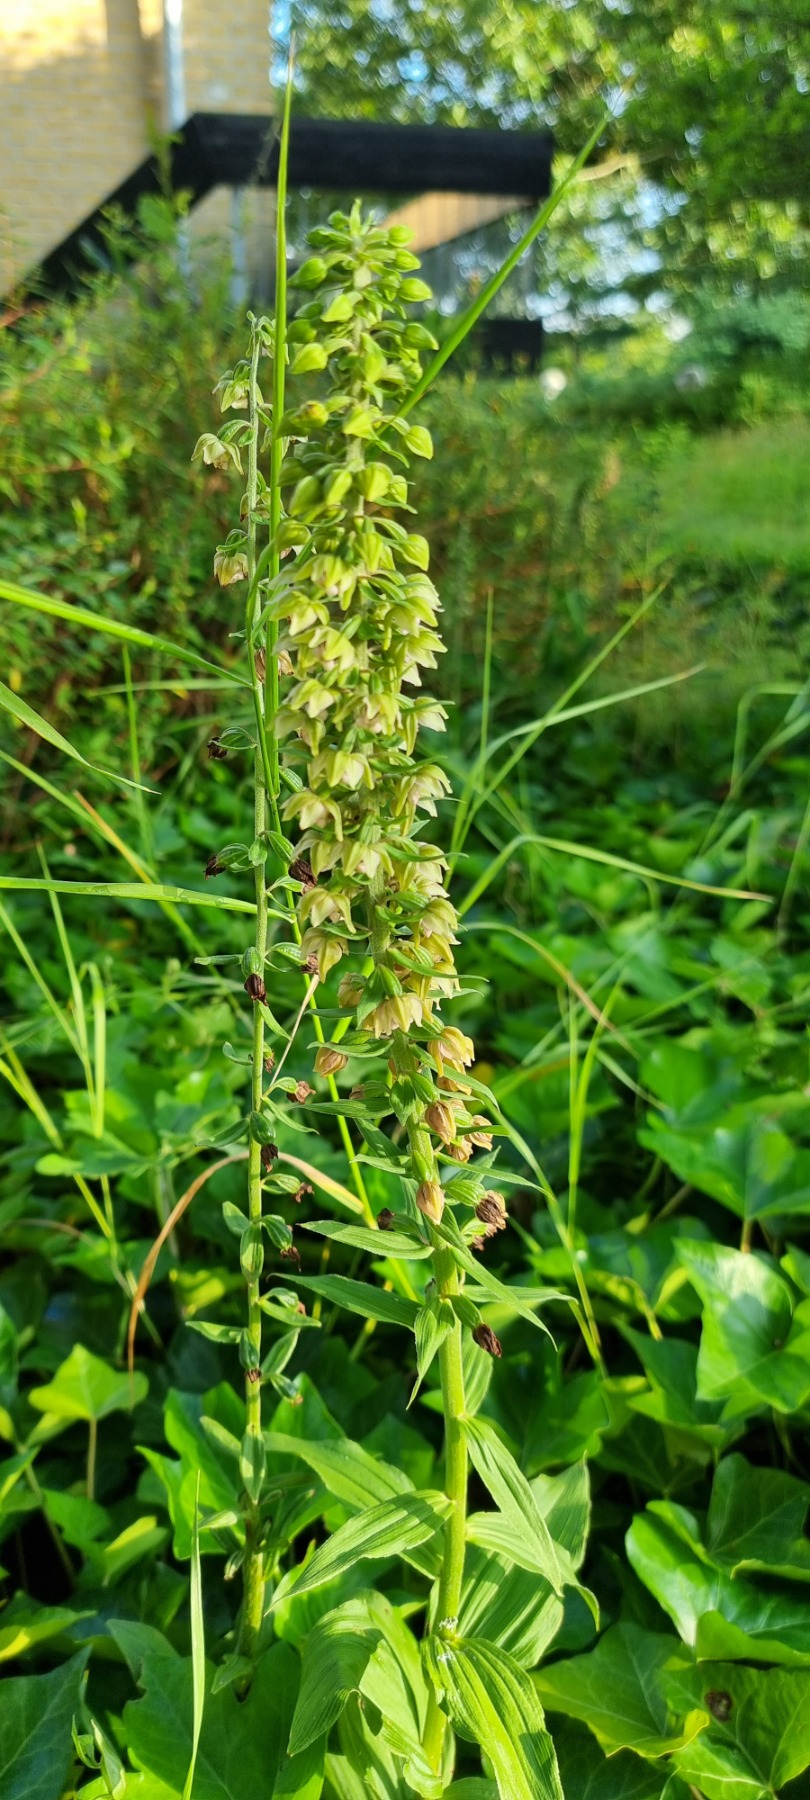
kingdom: Plantae
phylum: Tracheophyta
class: Liliopsida
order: Asparagales
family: Orchidaceae
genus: Epipactis
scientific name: Epipactis helleborine
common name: Skov-hullæbe
